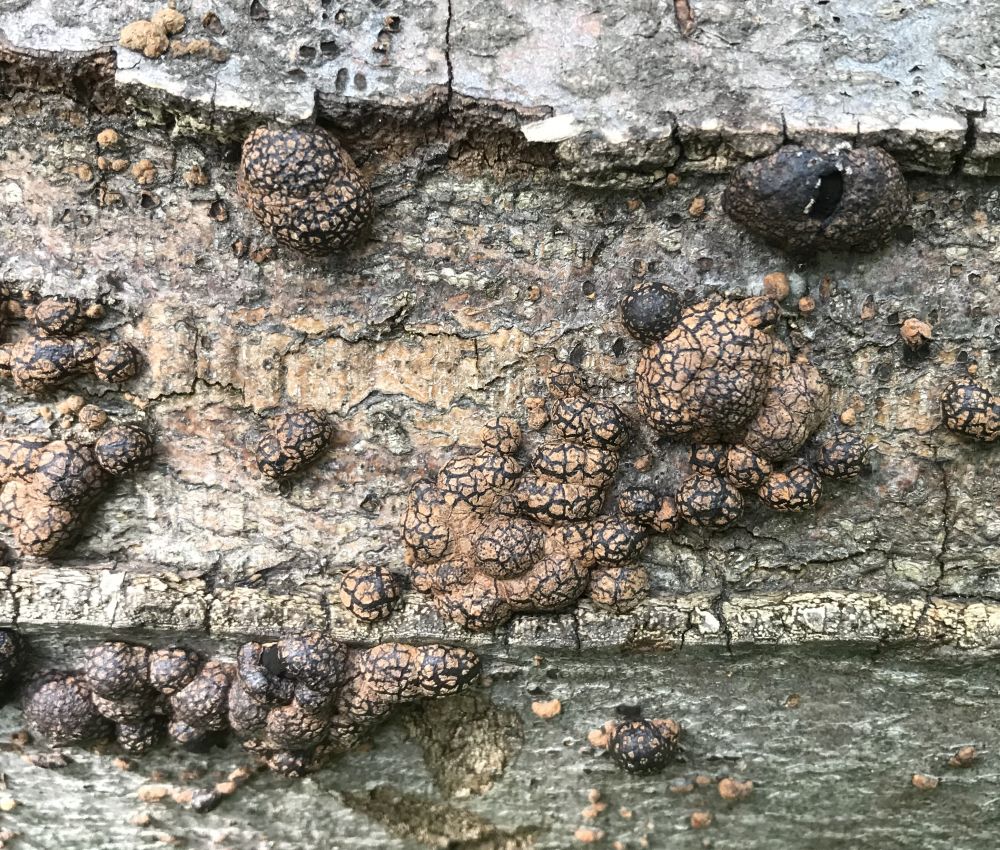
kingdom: Fungi
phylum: Ascomycota
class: Sordariomycetes
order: Xylariales
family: Hypoxylaceae
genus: Hypoxylon
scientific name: Hypoxylon fragiforme
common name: kuljordbær
